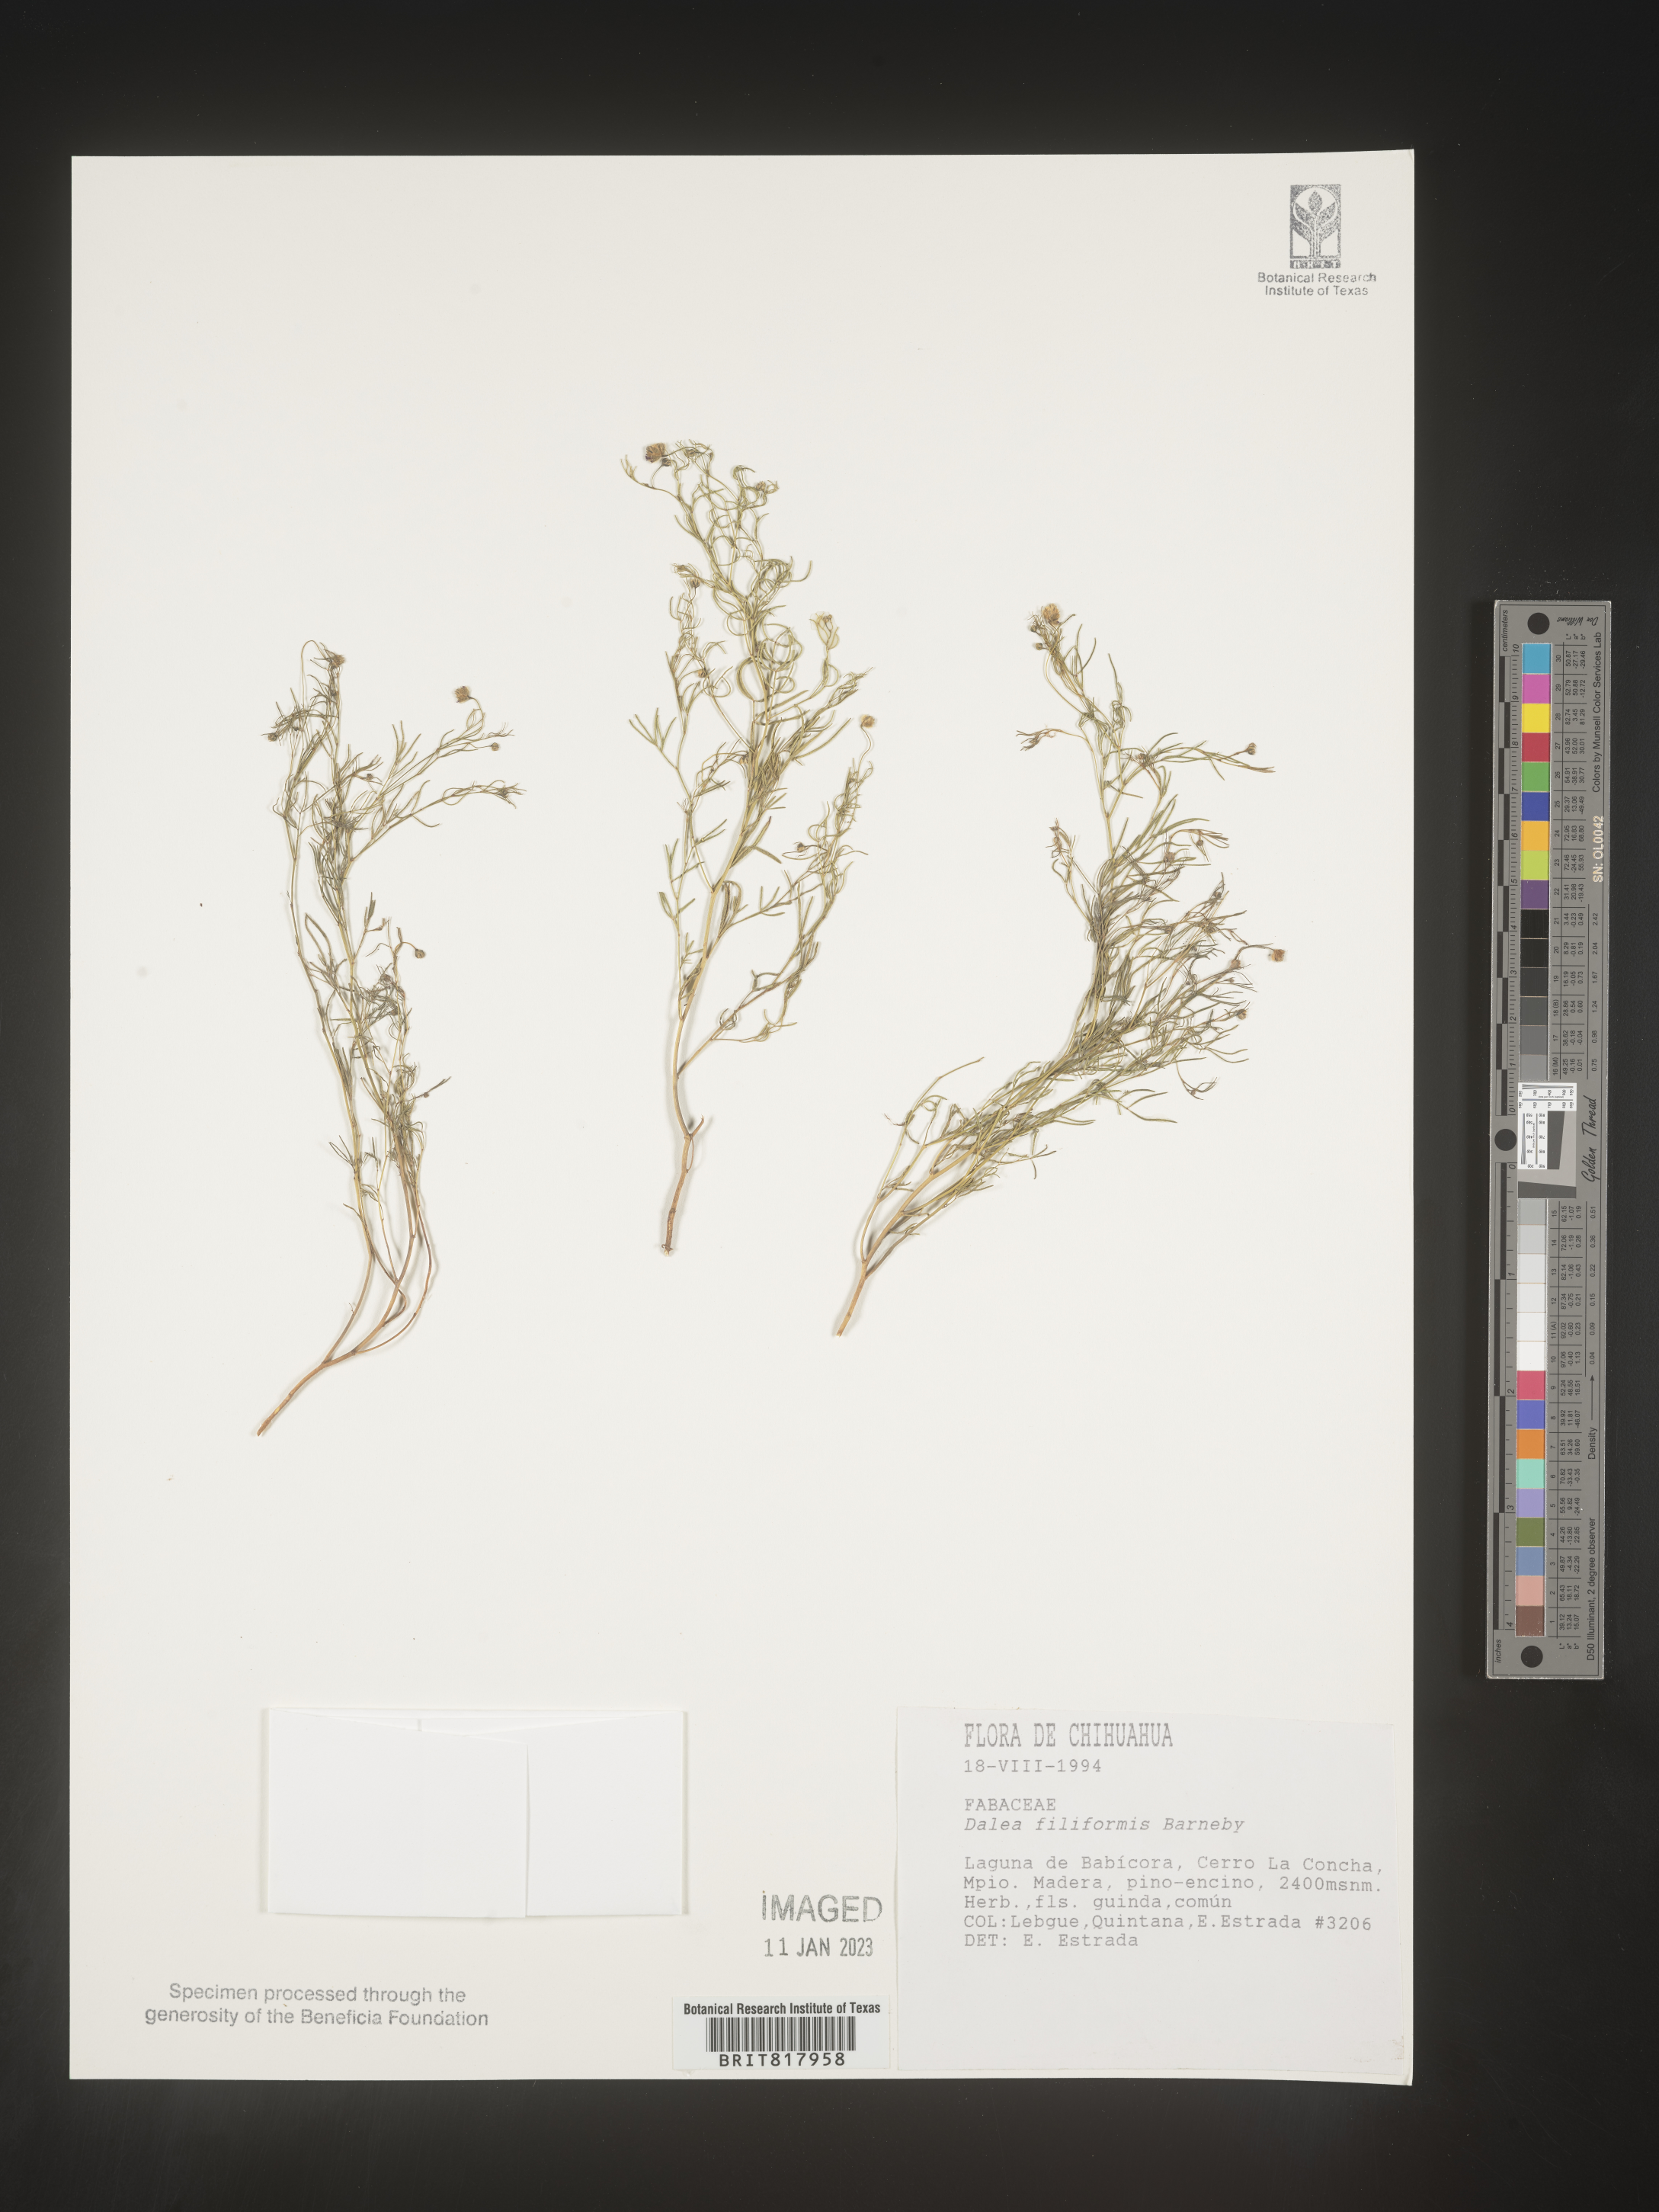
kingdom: Plantae
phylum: Tracheophyta
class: Magnoliopsida
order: Fabales
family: Fabaceae
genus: Dalea
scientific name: Dalea
